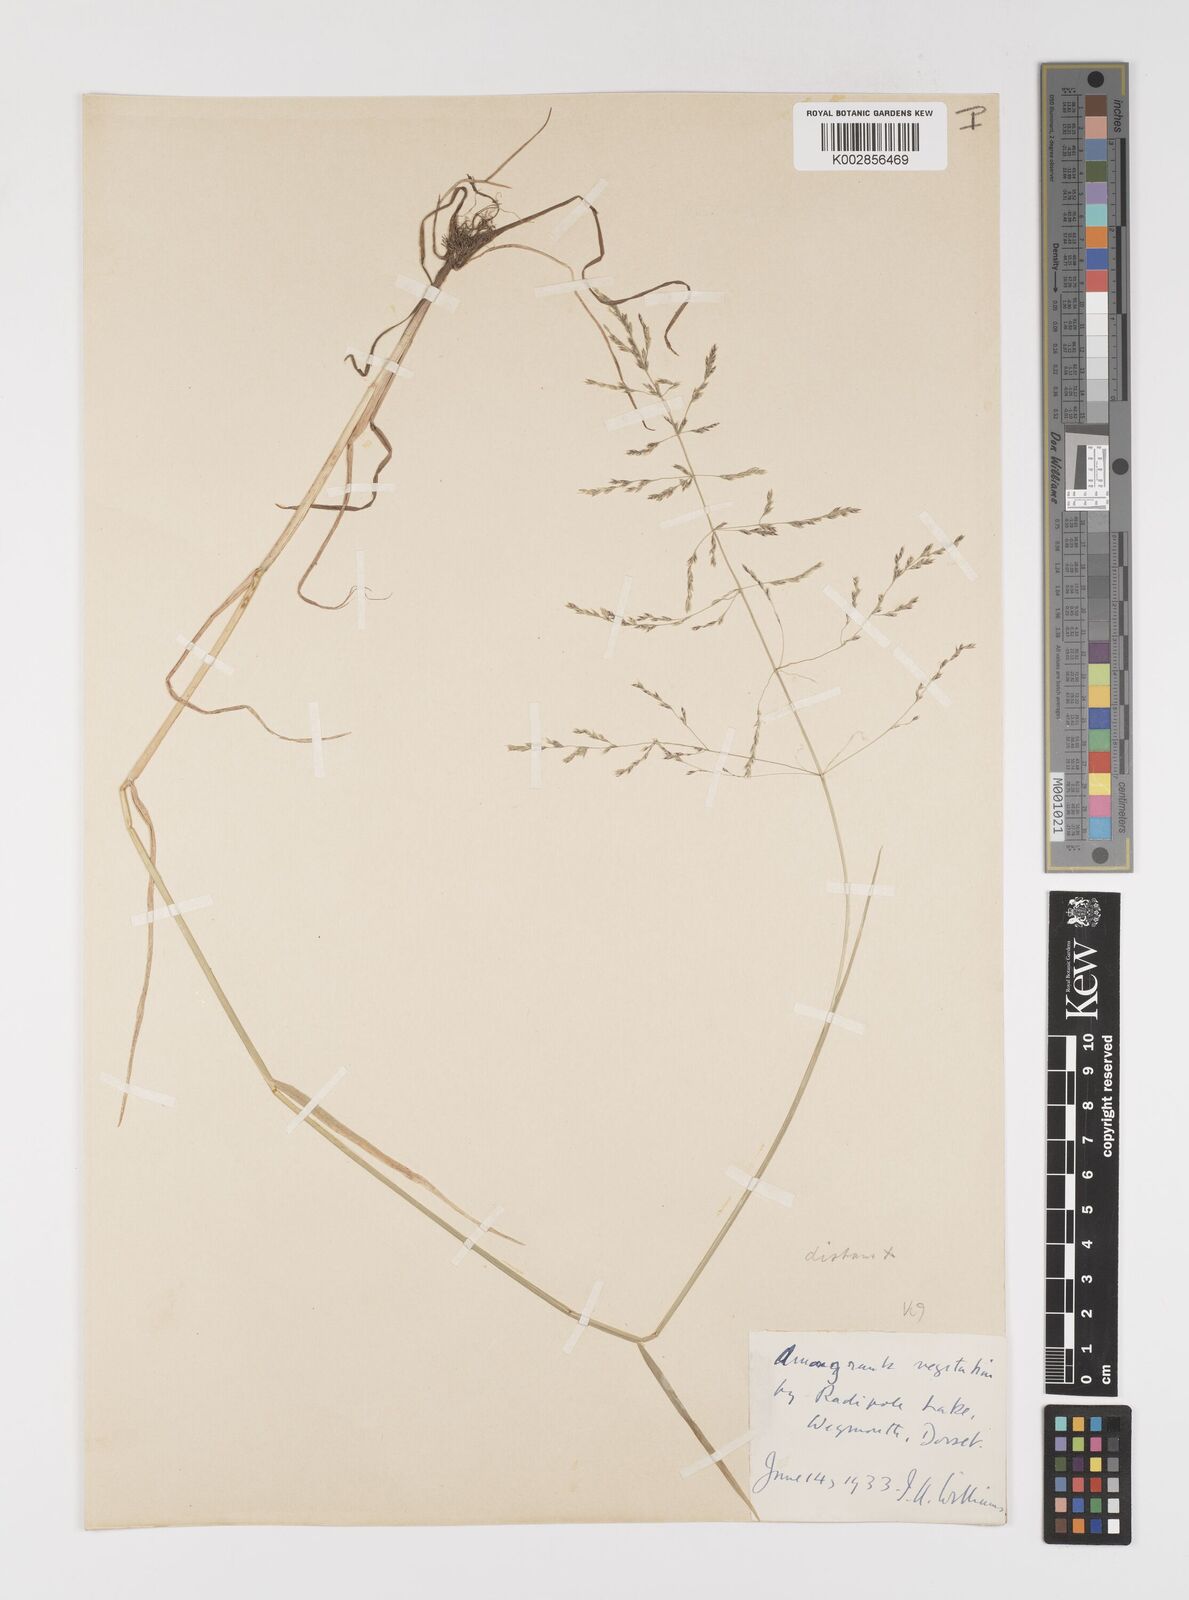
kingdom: Plantae
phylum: Tracheophyta
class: Liliopsida
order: Poales
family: Poaceae
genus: Puccinellia
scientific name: Puccinellia distans
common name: Weeping alkaligrass
